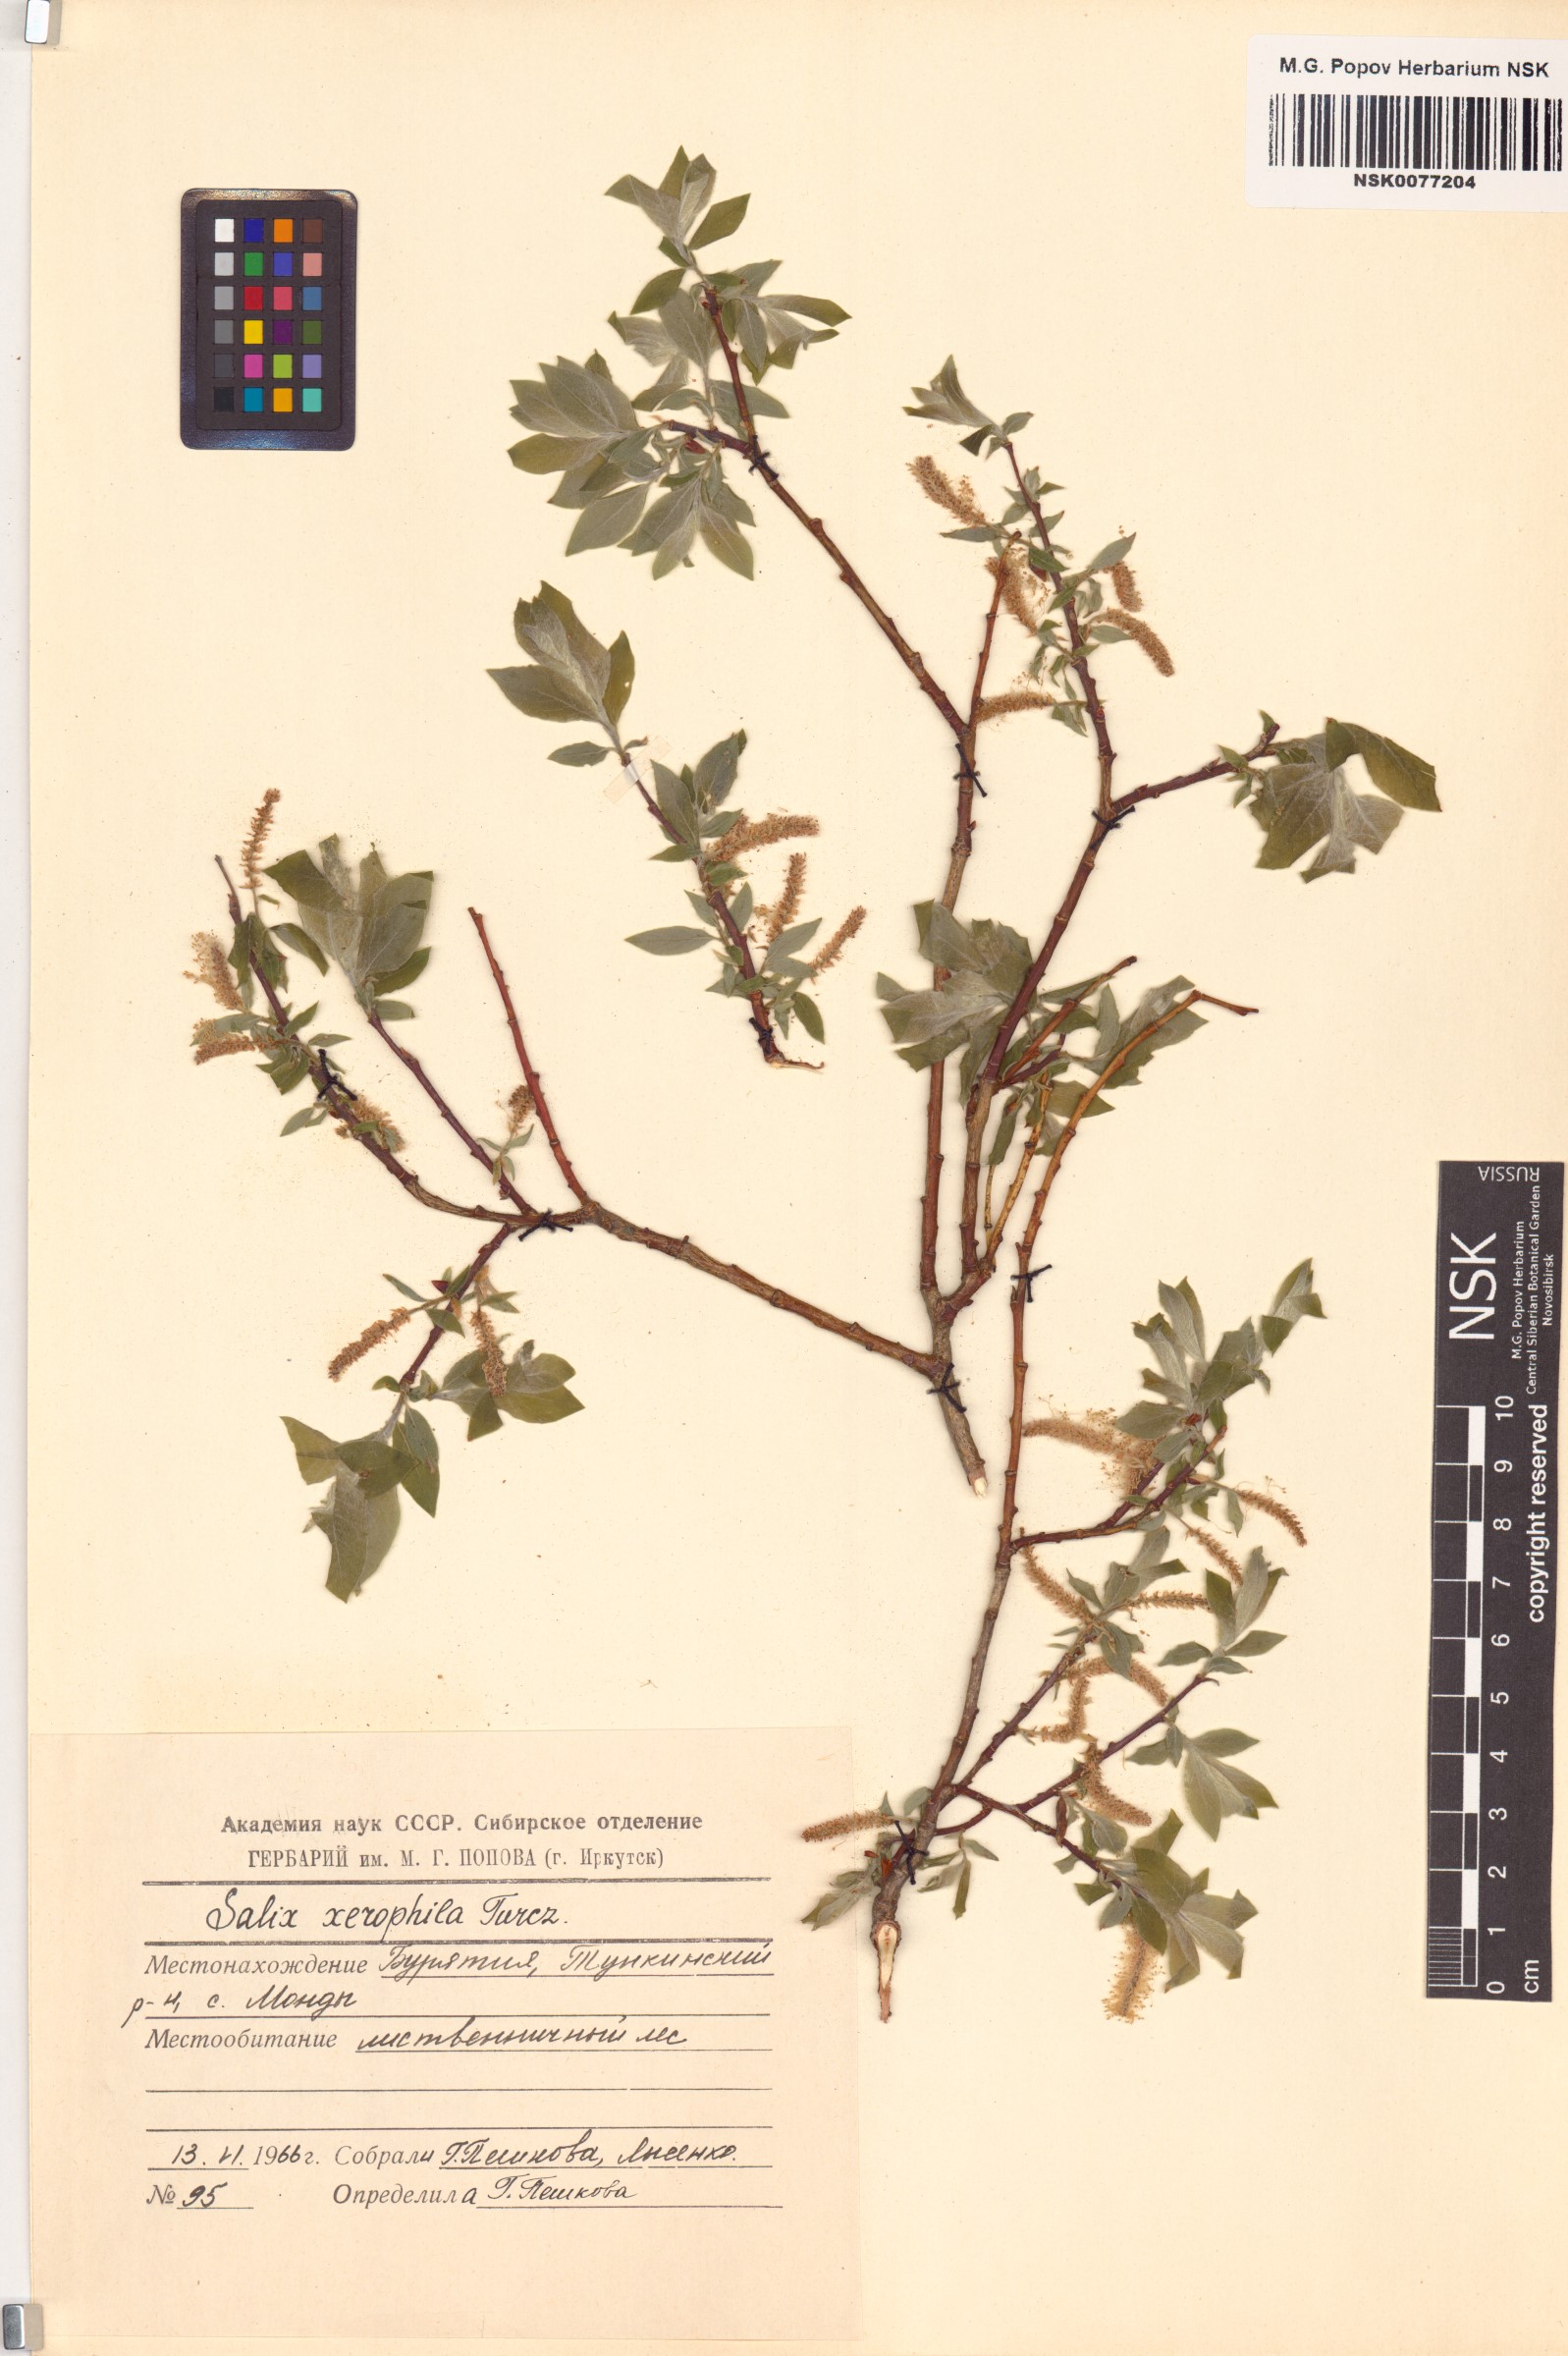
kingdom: Plantae
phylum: Tracheophyta
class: Magnoliopsida
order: Malpighiales
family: Salicaceae
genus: Salix
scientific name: Salix bebbiana
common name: Bebb's willow
